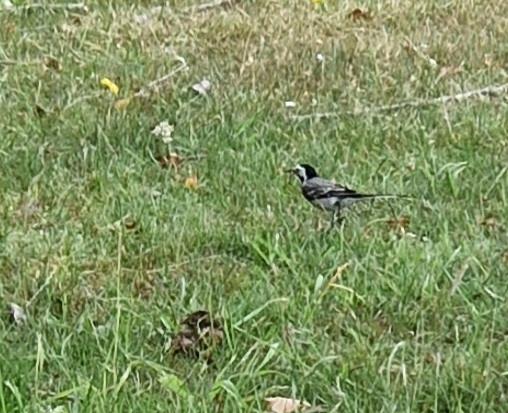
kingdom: Animalia
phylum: Chordata
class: Aves
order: Passeriformes
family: Motacillidae
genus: Motacilla
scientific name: Motacilla alba
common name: Hvid vipstjert
